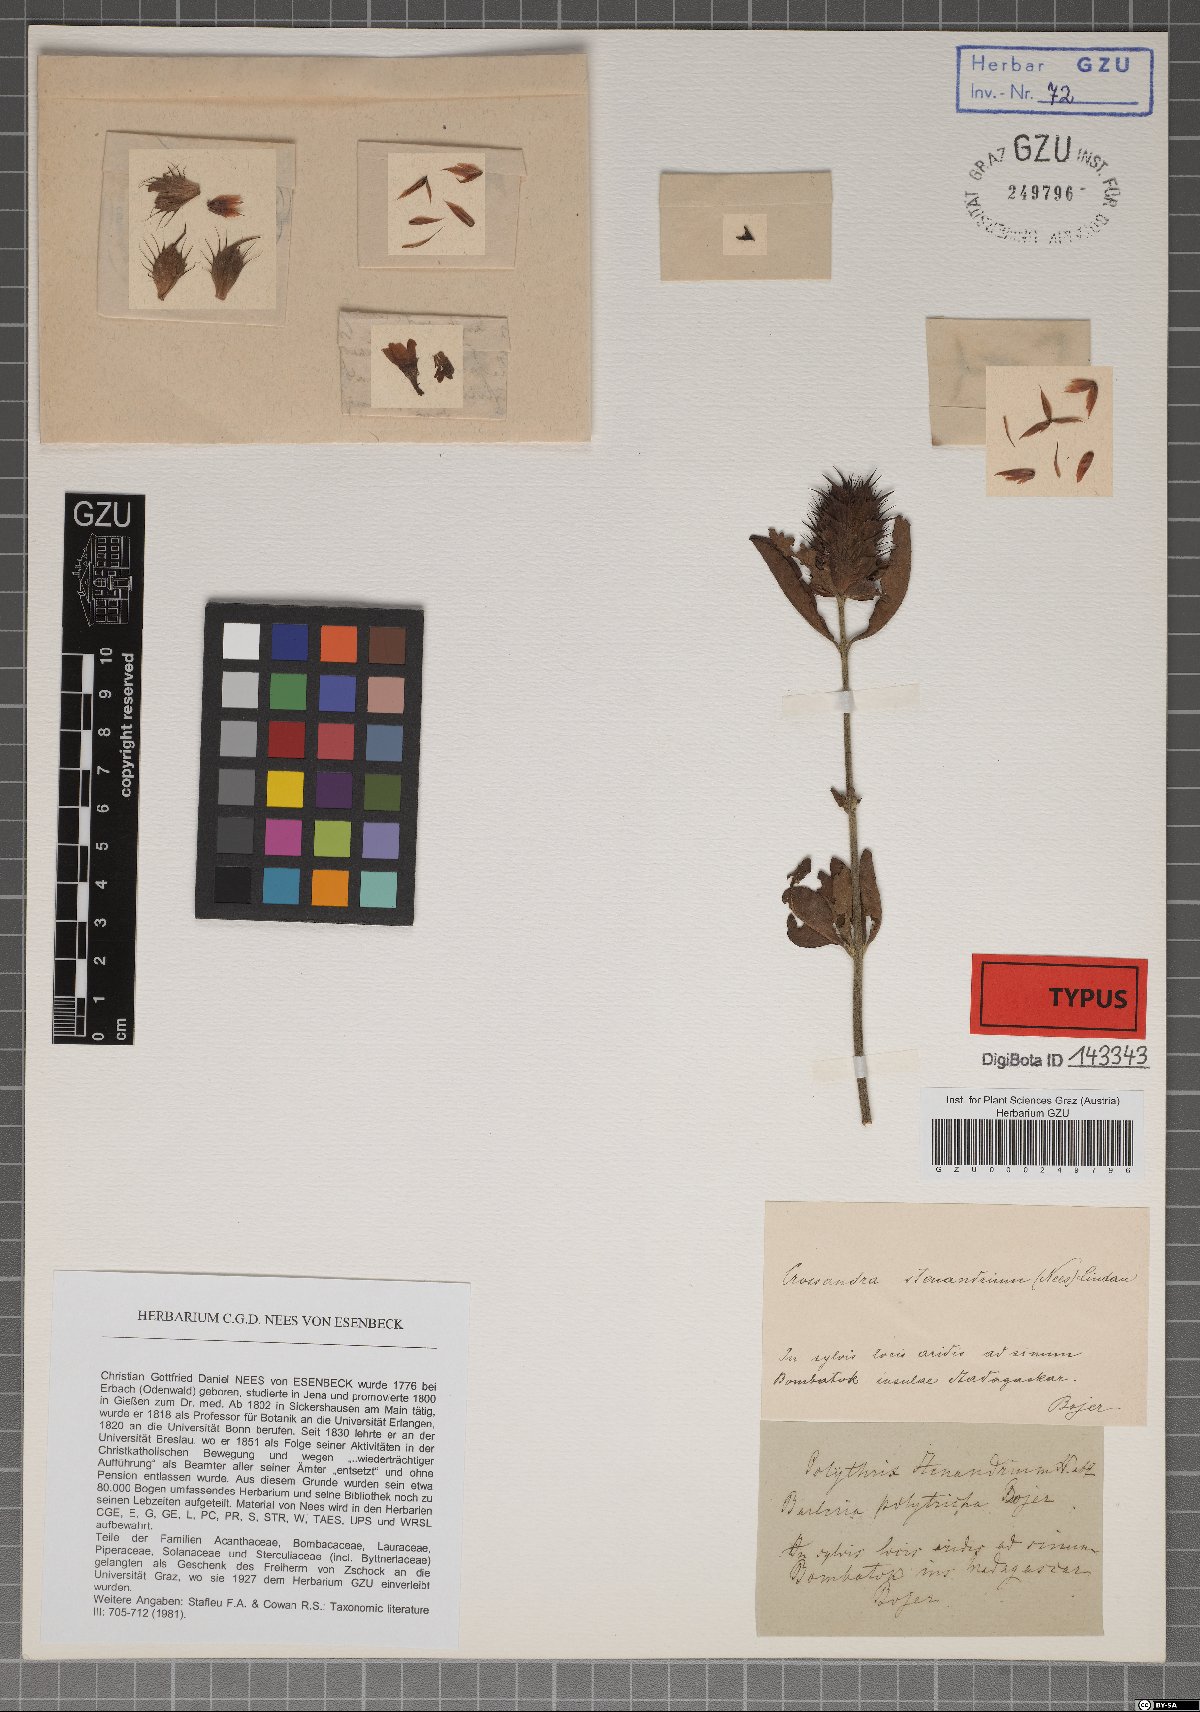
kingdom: Plantae
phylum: Tracheophyta
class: Magnoliopsida
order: Lamiales
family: Acanthaceae
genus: Crossandra
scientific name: Crossandra stenandrium
